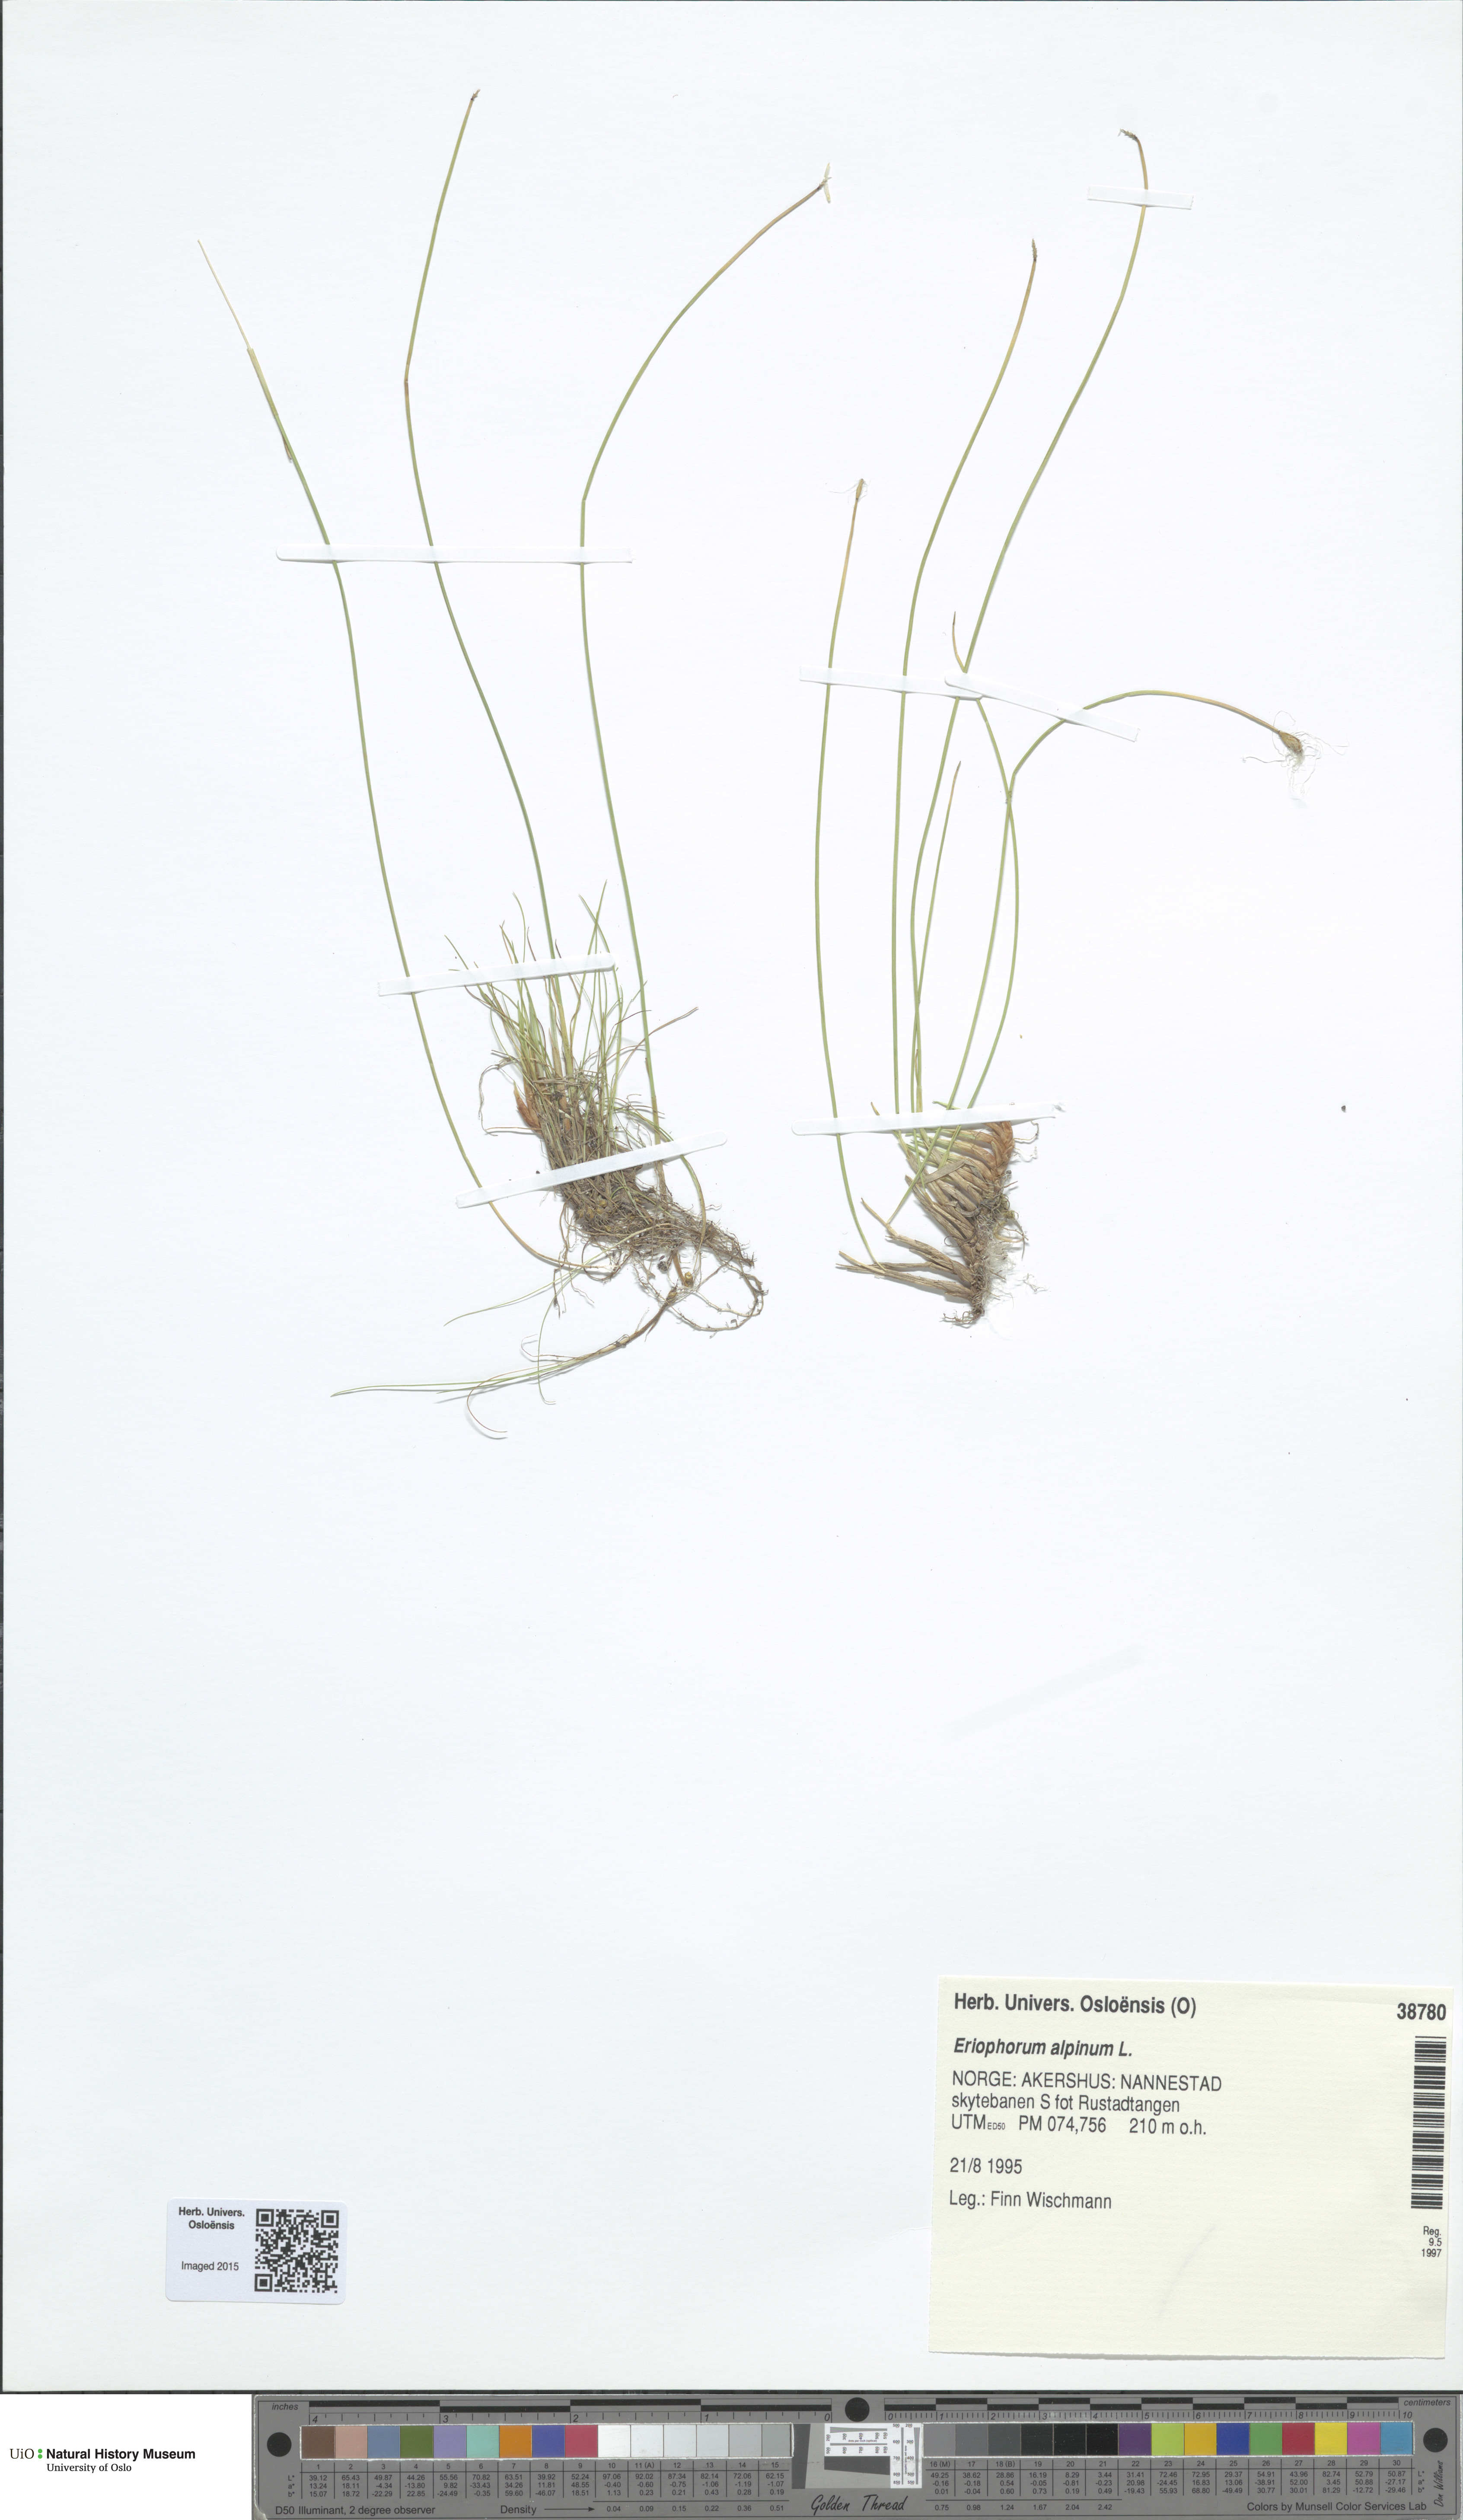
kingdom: Plantae
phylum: Tracheophyta
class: Liliopsida
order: Poales
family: Cyperaceae
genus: Trichophorum
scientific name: Trichophorum alpinum
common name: Alpine bulrush
